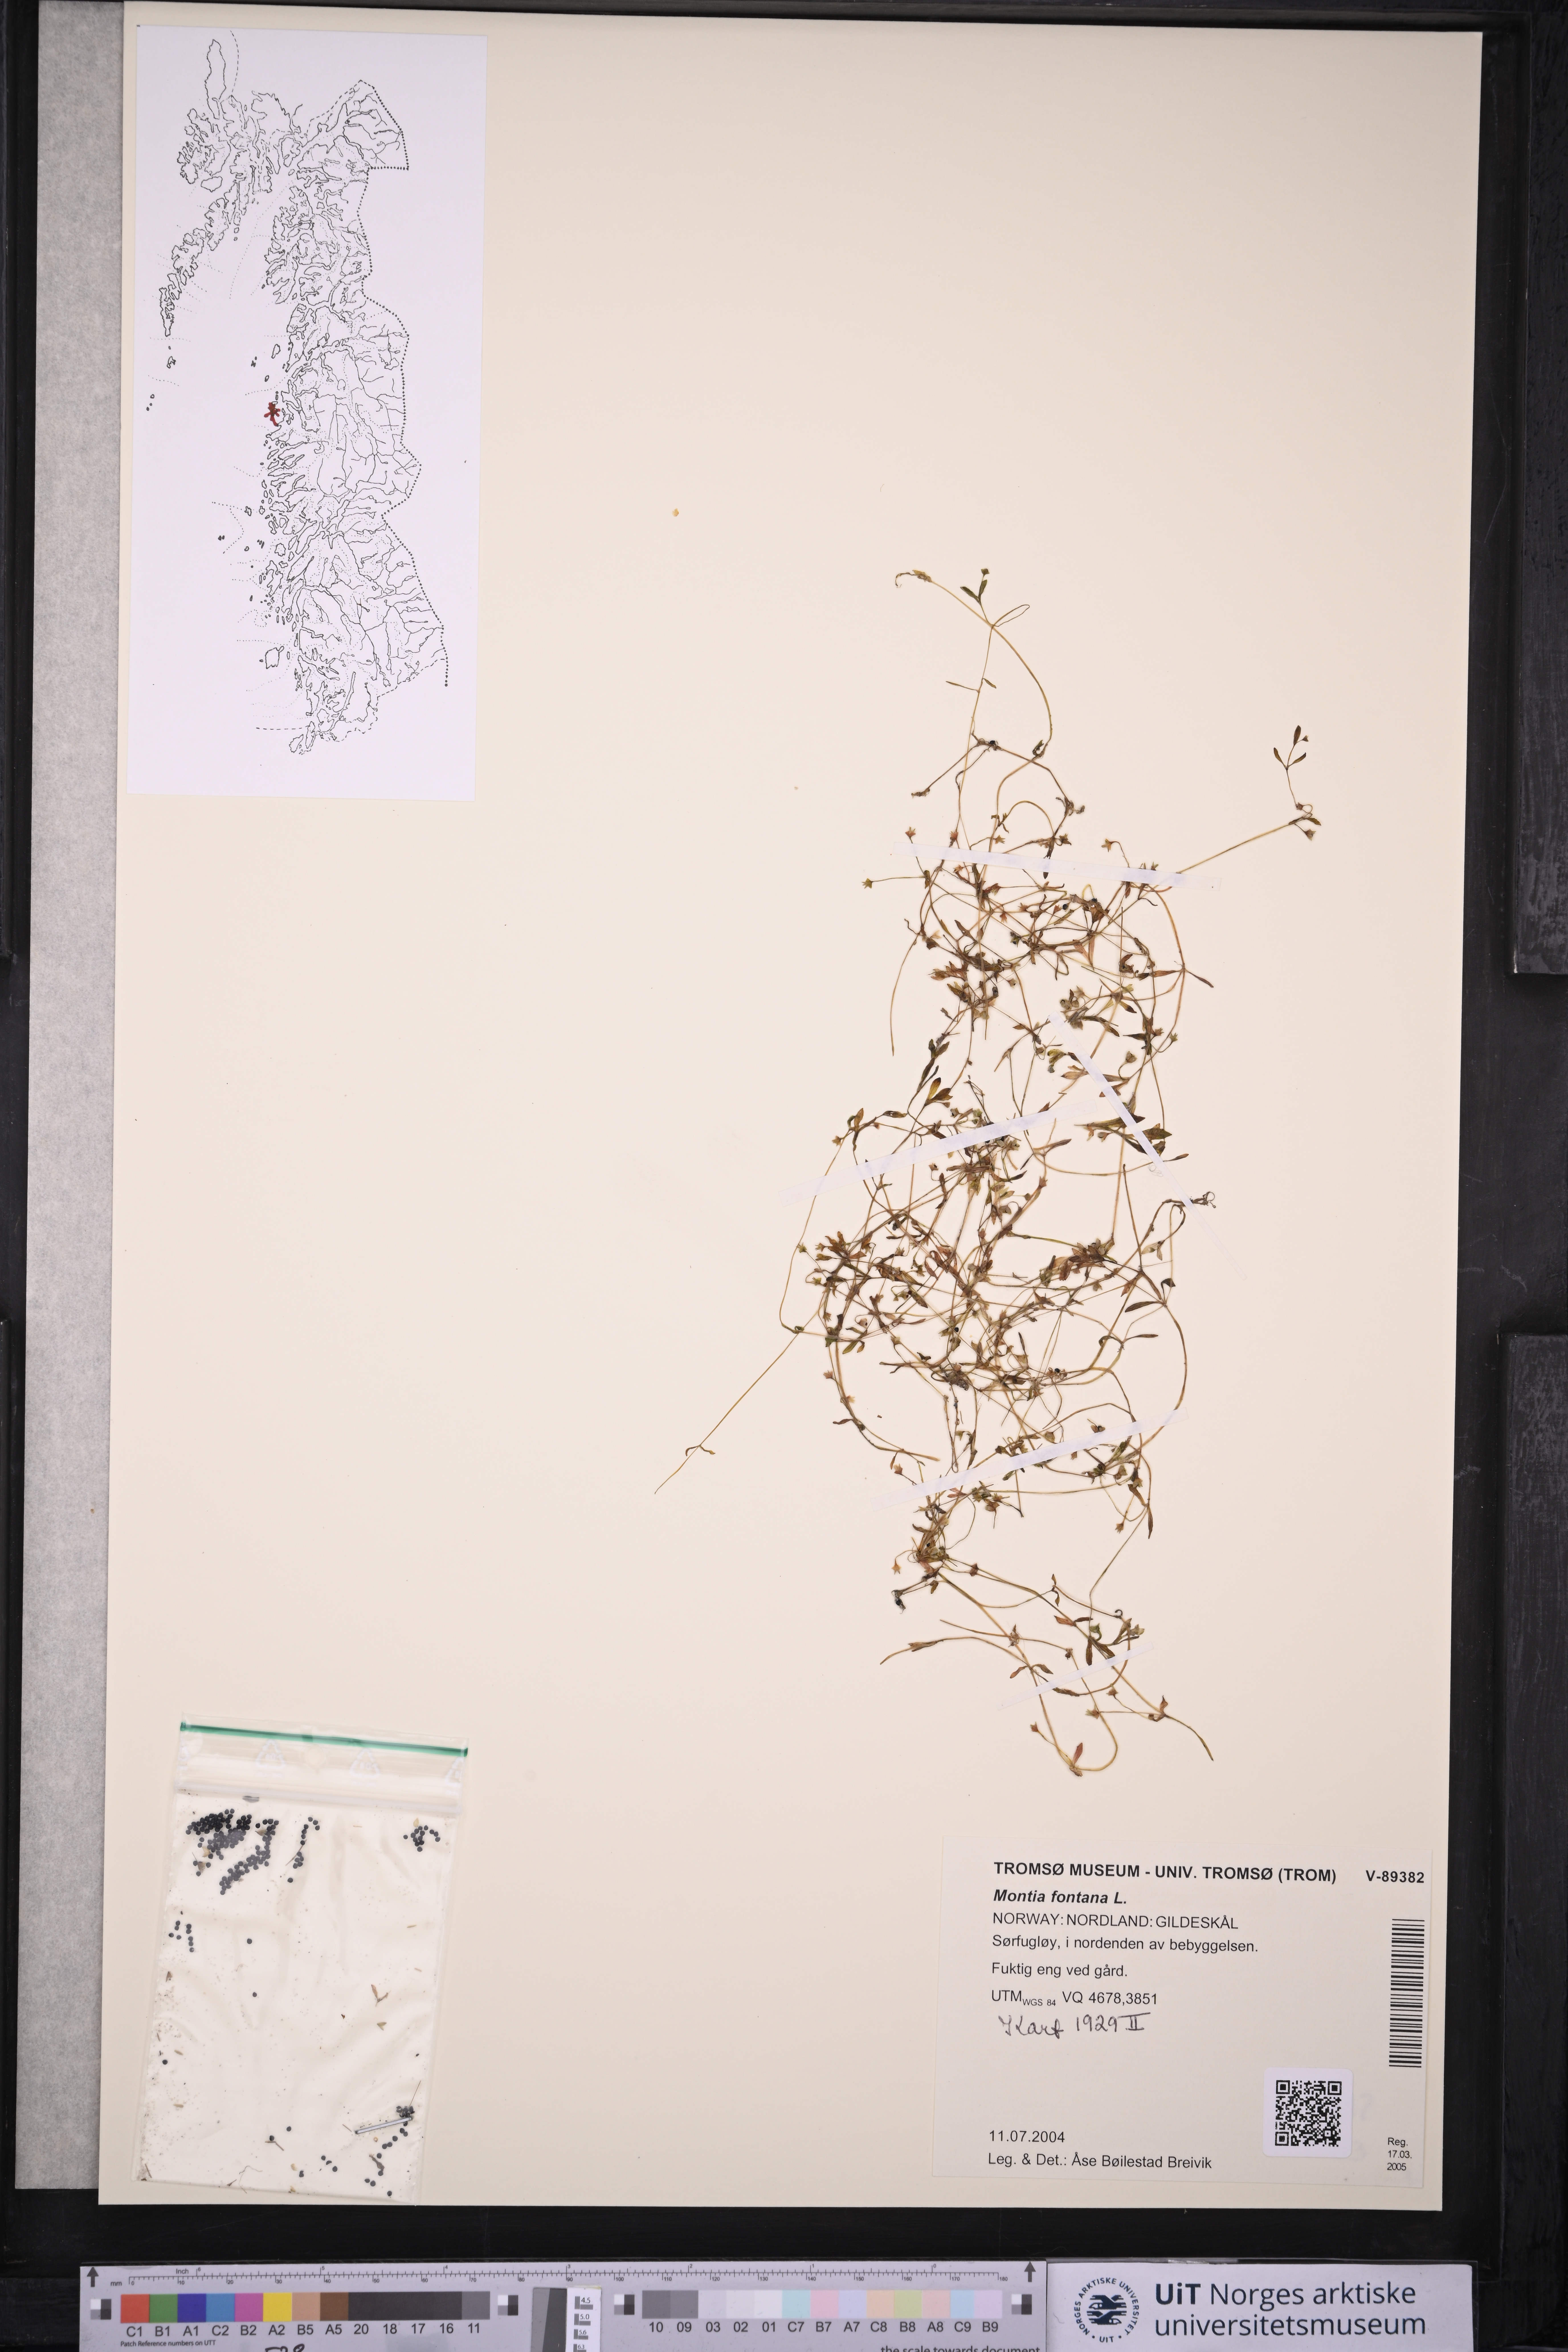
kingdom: Plantae
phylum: Tracheophyta
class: Magnoliopsida
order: Caryophyllales
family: Montiaceae
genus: Montia
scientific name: Montia fontana
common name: Blinks
